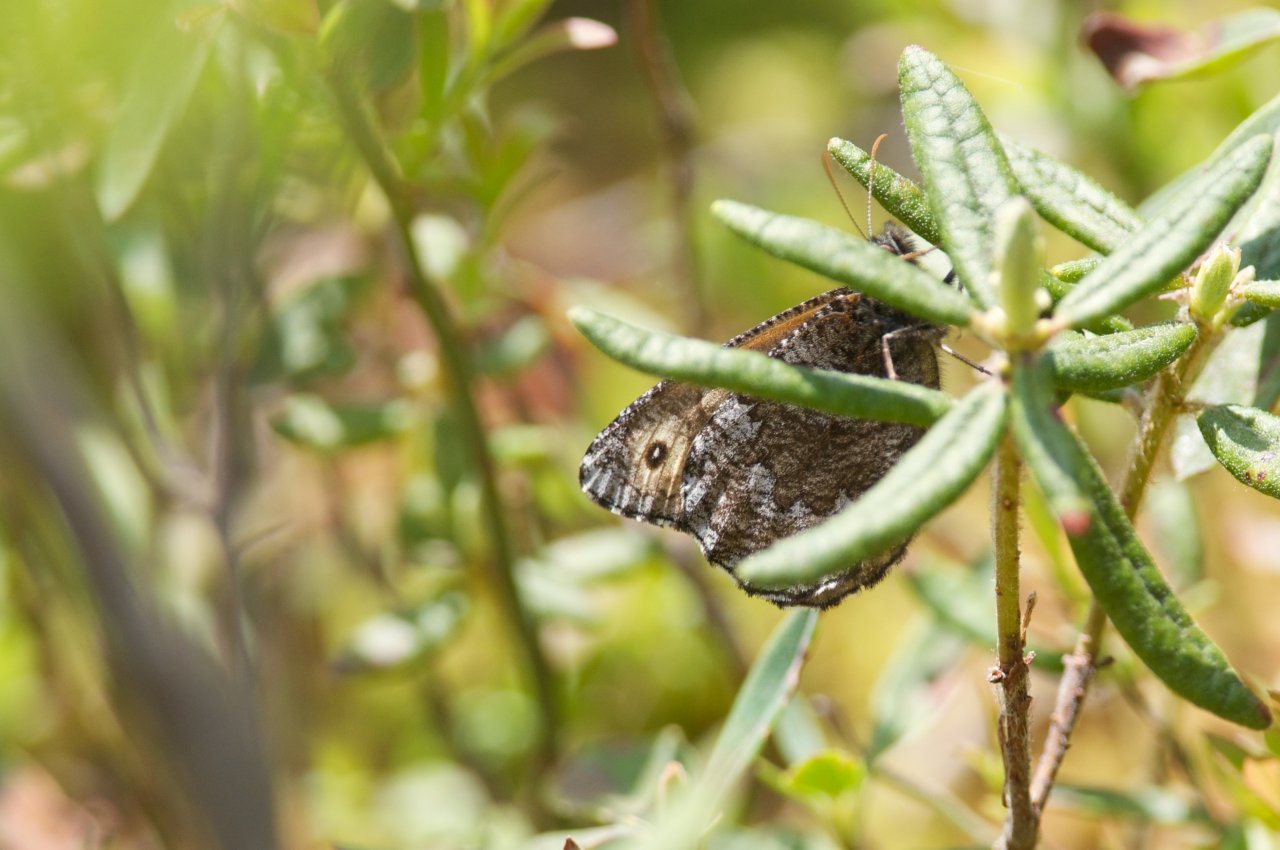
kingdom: Animalia
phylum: Arthropoda
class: Insecta
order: Lepidoptera
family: Nymphalidae
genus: Oeneis
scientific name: Oeneis jutta
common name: Jutta Arctic
